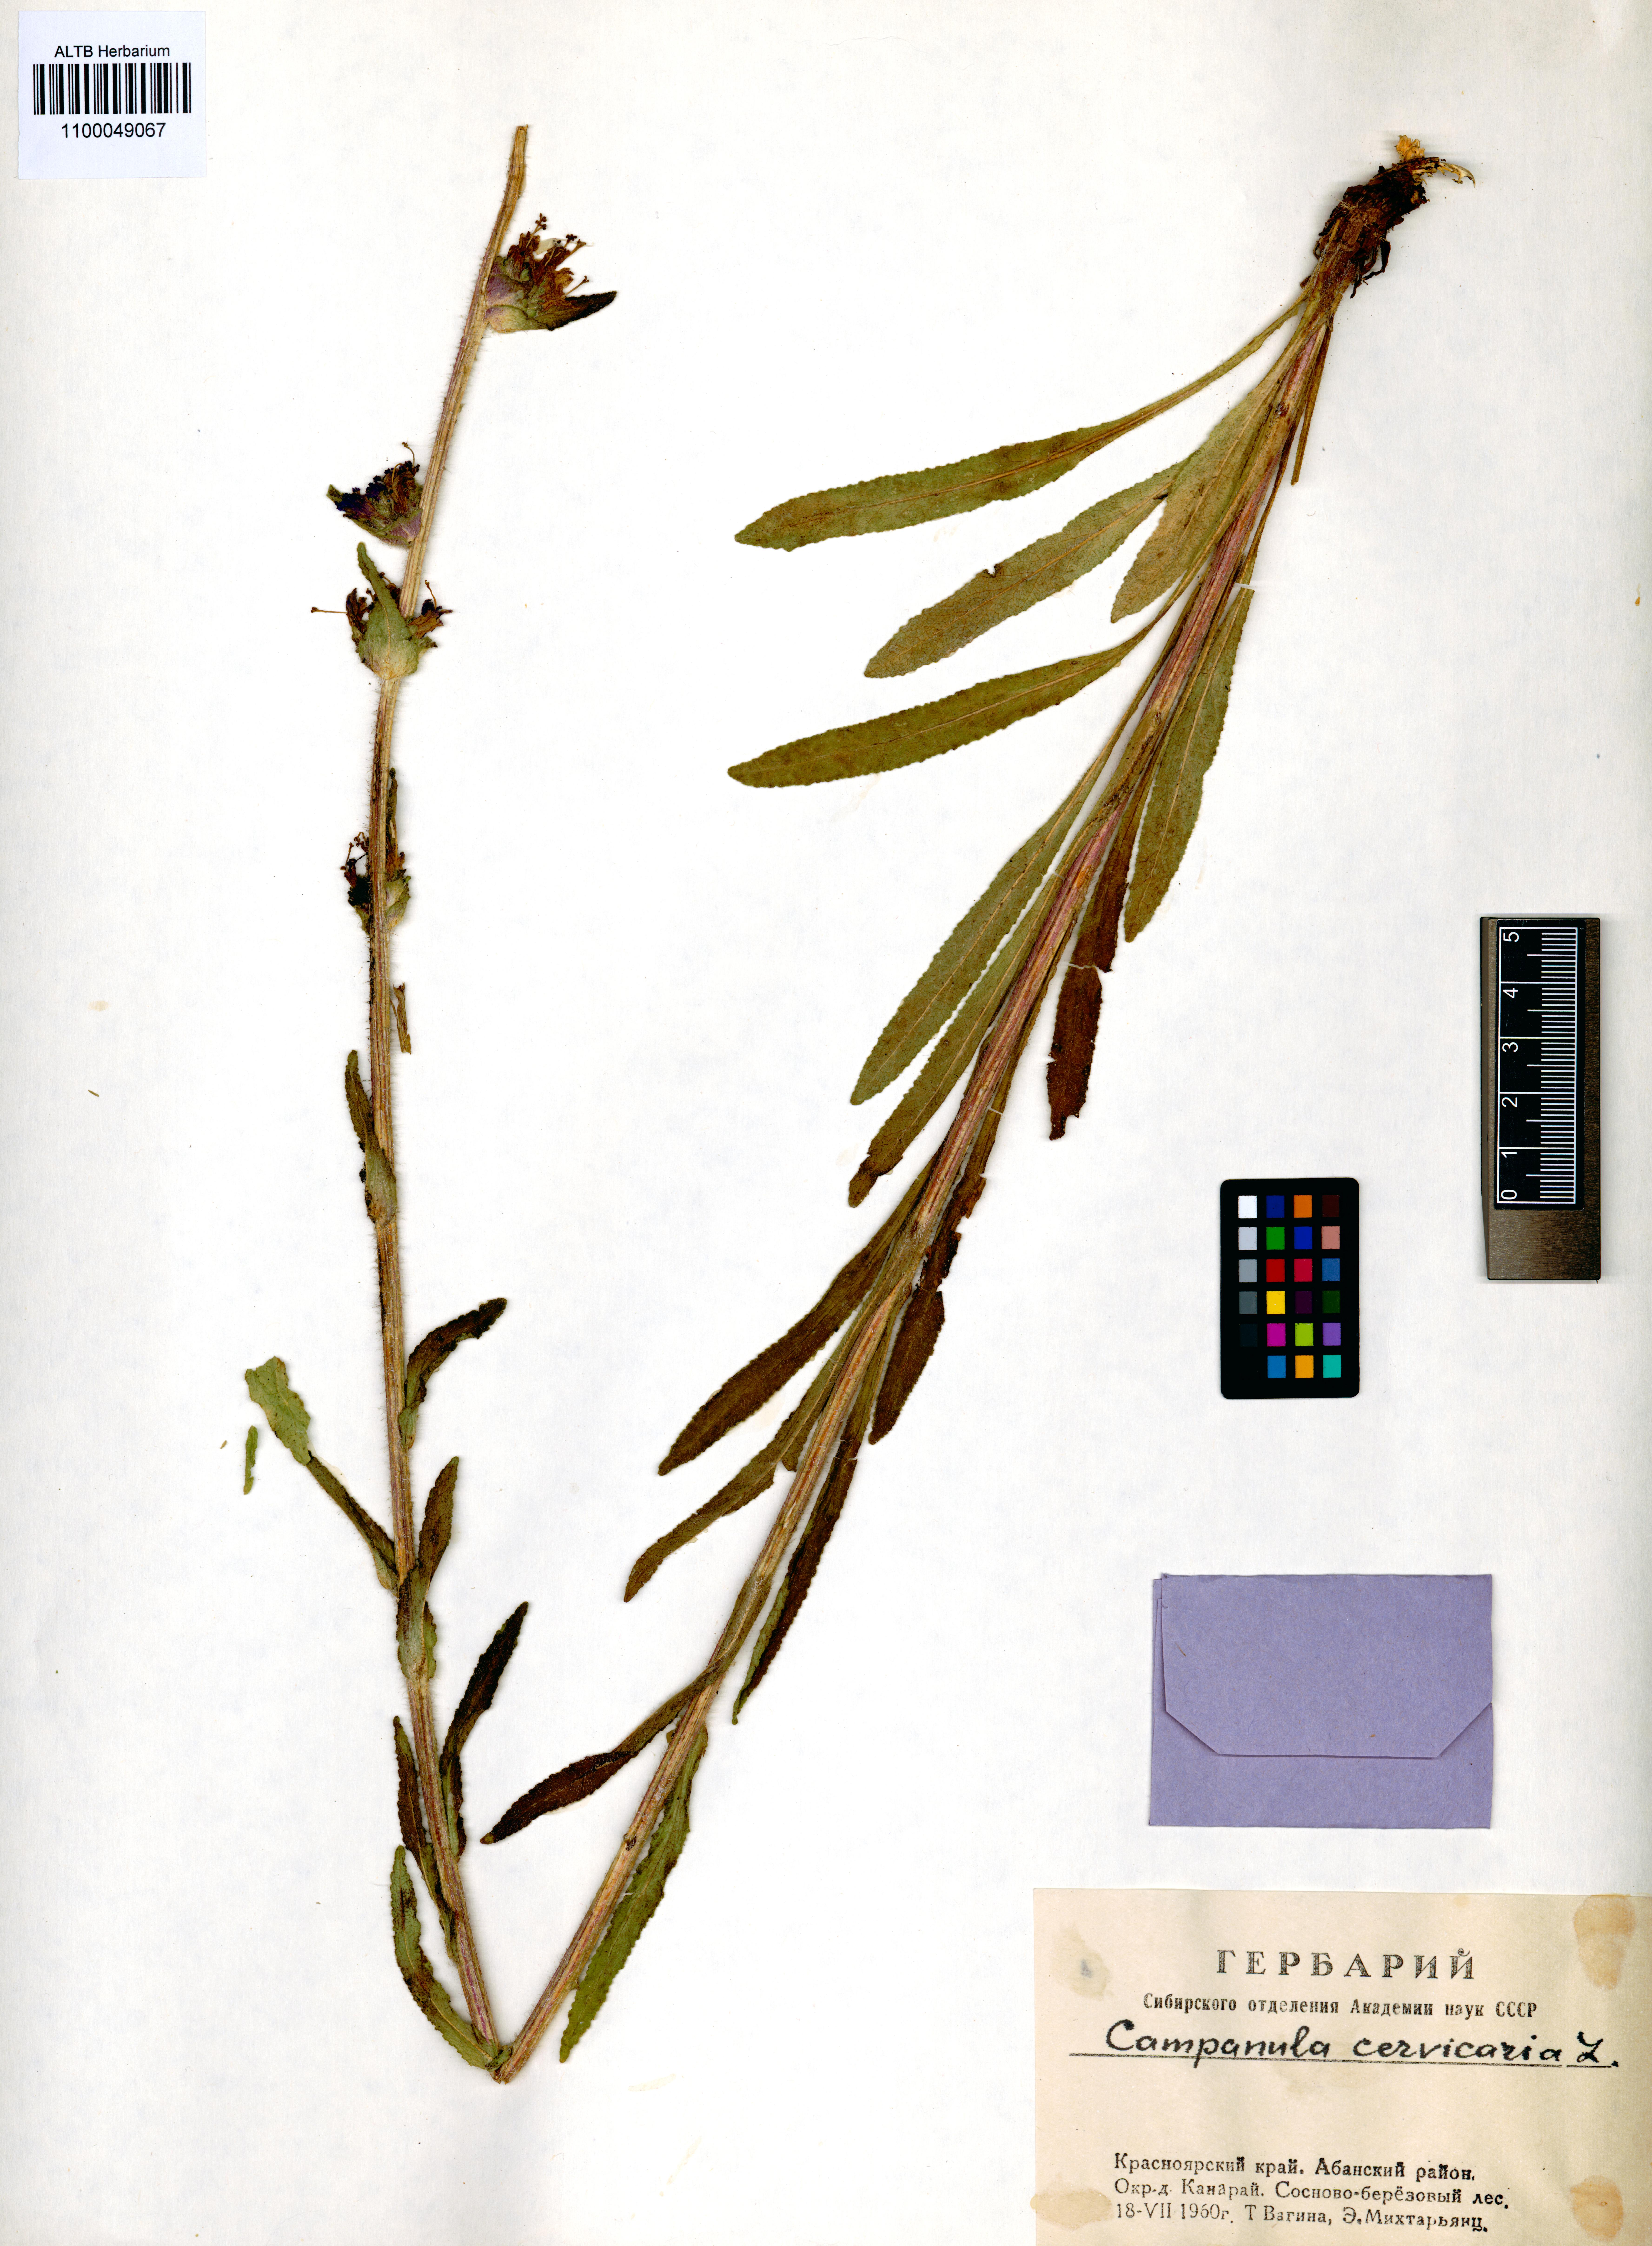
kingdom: Plantae
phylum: Tracheophyta
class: Magnoliopsida
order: Asterales
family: Campanulaceae
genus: Campanula
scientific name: Campanula cervicaria
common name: Bristly bellflower
